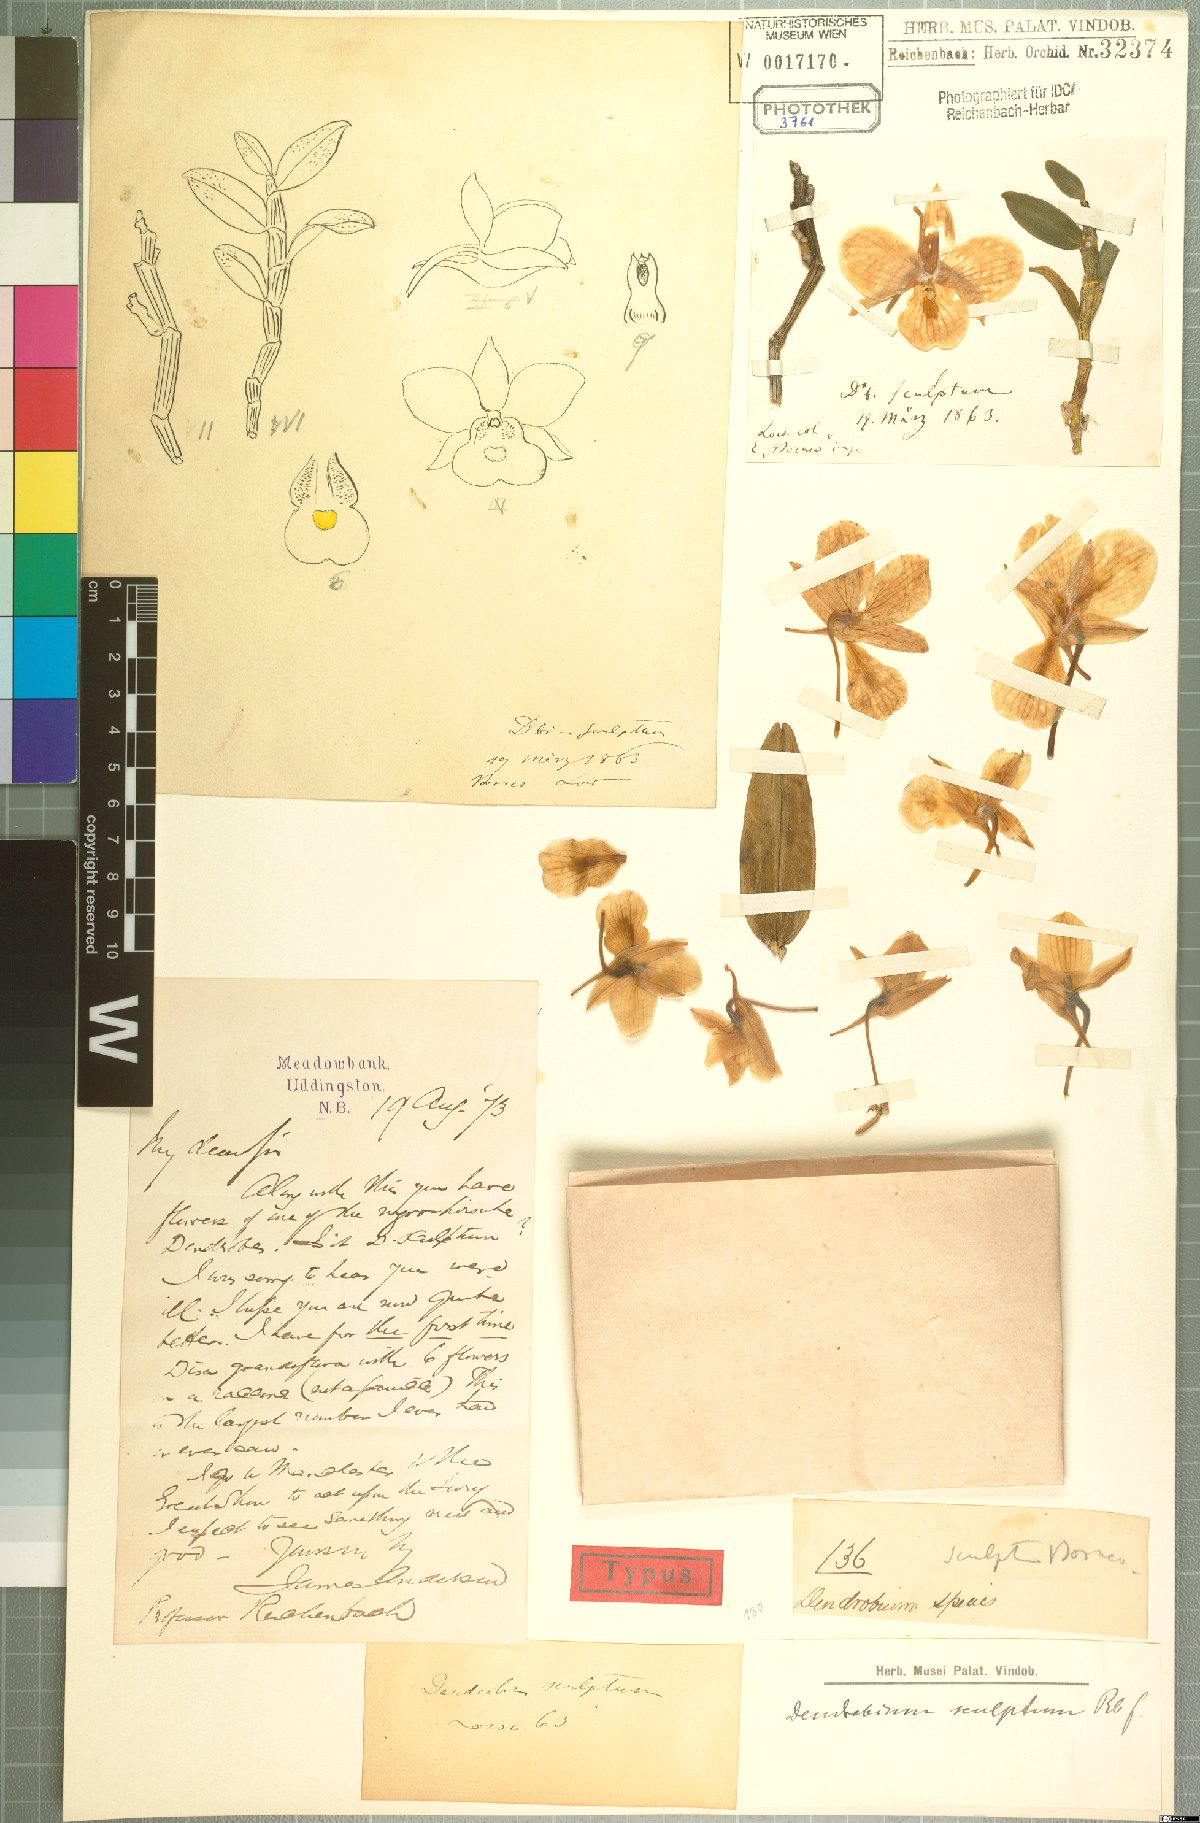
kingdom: Plantae
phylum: Tracheophyta
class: Liliopsida
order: Asparagales
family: Orchidaceae
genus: Dendrobium
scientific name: Dendrobium sculptum
